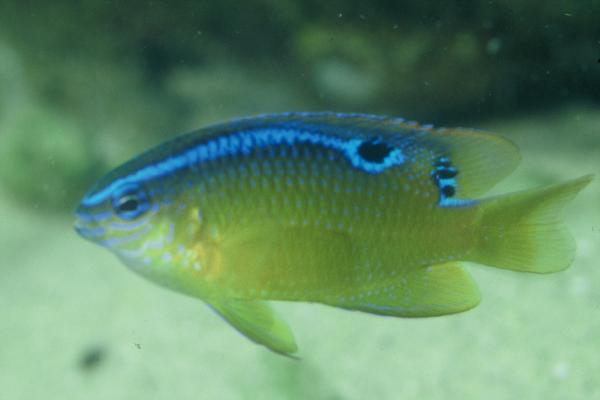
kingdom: Animalia
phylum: Chordata
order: Perciformes
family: Pomacentridae
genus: Chrysiptera
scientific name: Chrysiptera unimaculata
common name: Onespot demoiselle
